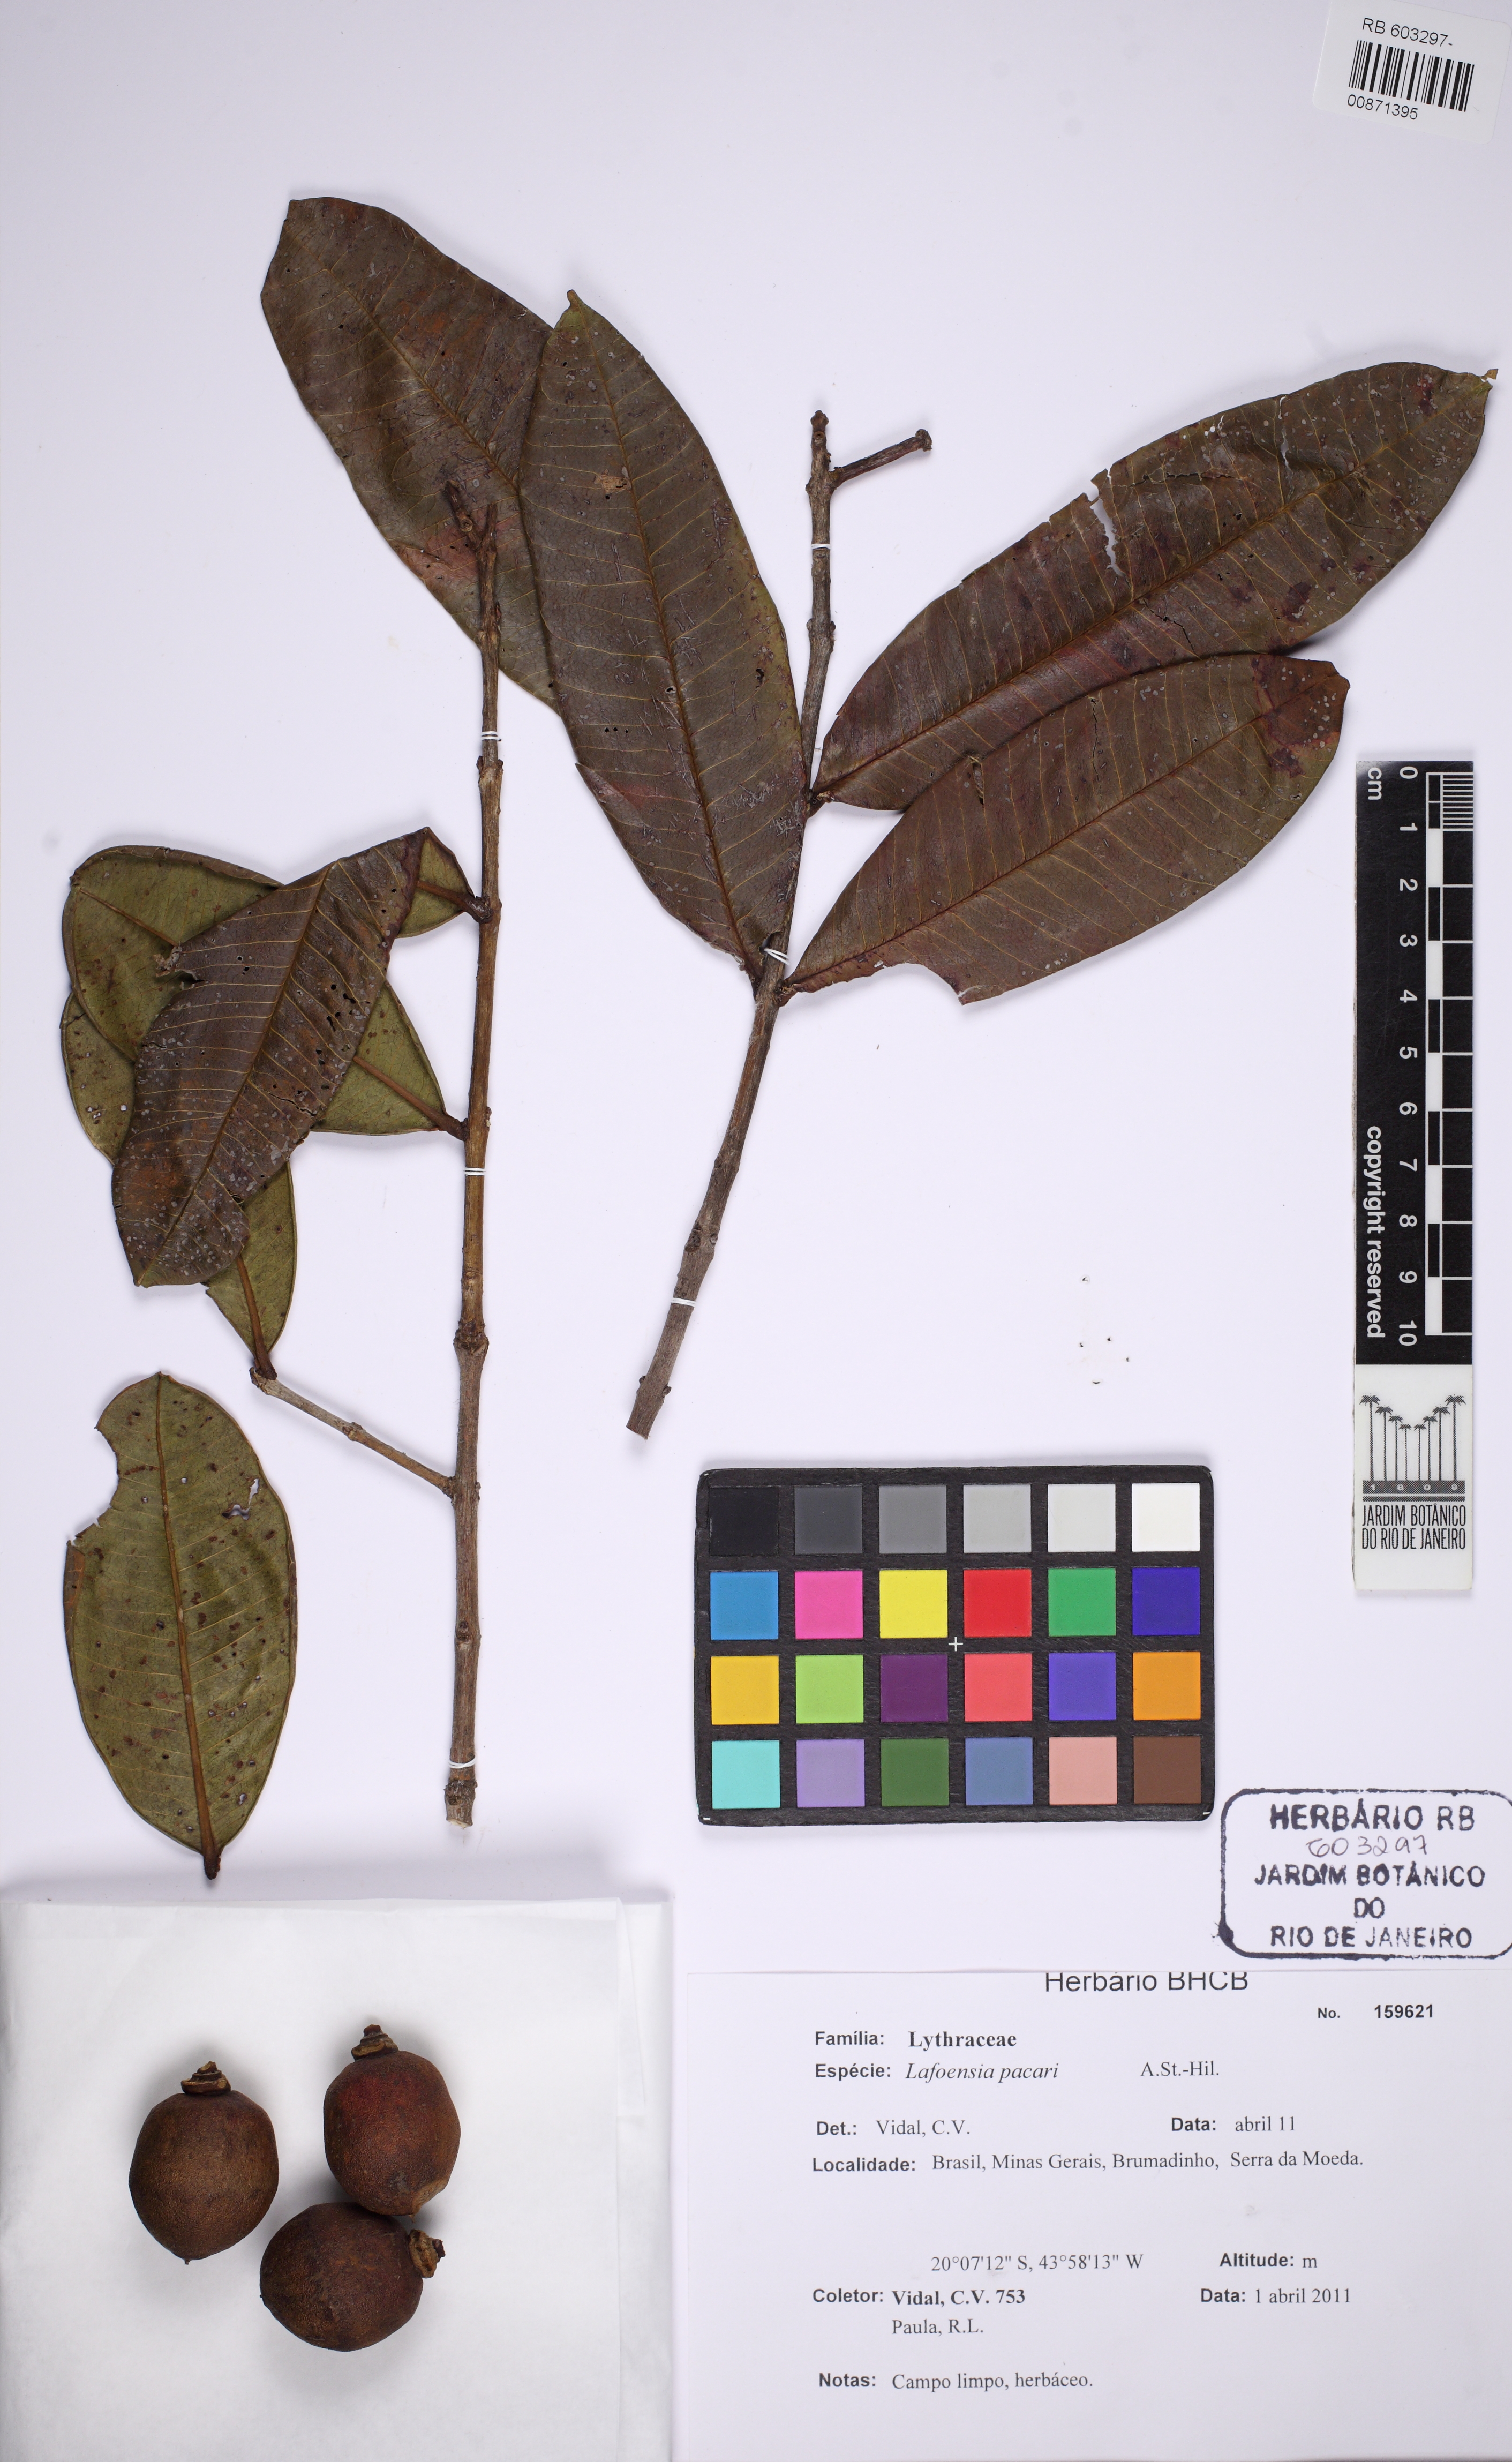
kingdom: Plantae
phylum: Tracheophyta
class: Magnoliopsida
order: Myrtales
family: Lythraceae
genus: Lafoensia
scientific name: Lafoensia pacari
